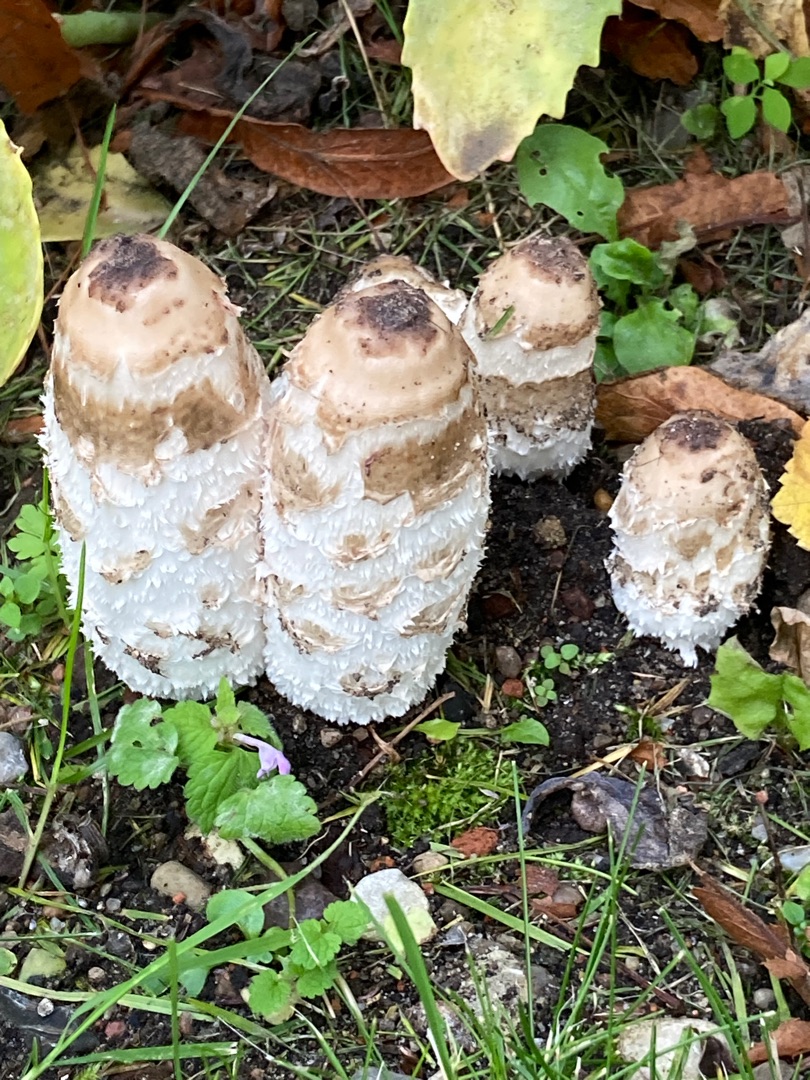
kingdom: Fungi
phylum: Basidiomycota
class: Agaricomycetes
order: Agaricales
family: Agaricaceae
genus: Coprinus
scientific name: Coprinus comatus
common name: Stor parykhat
